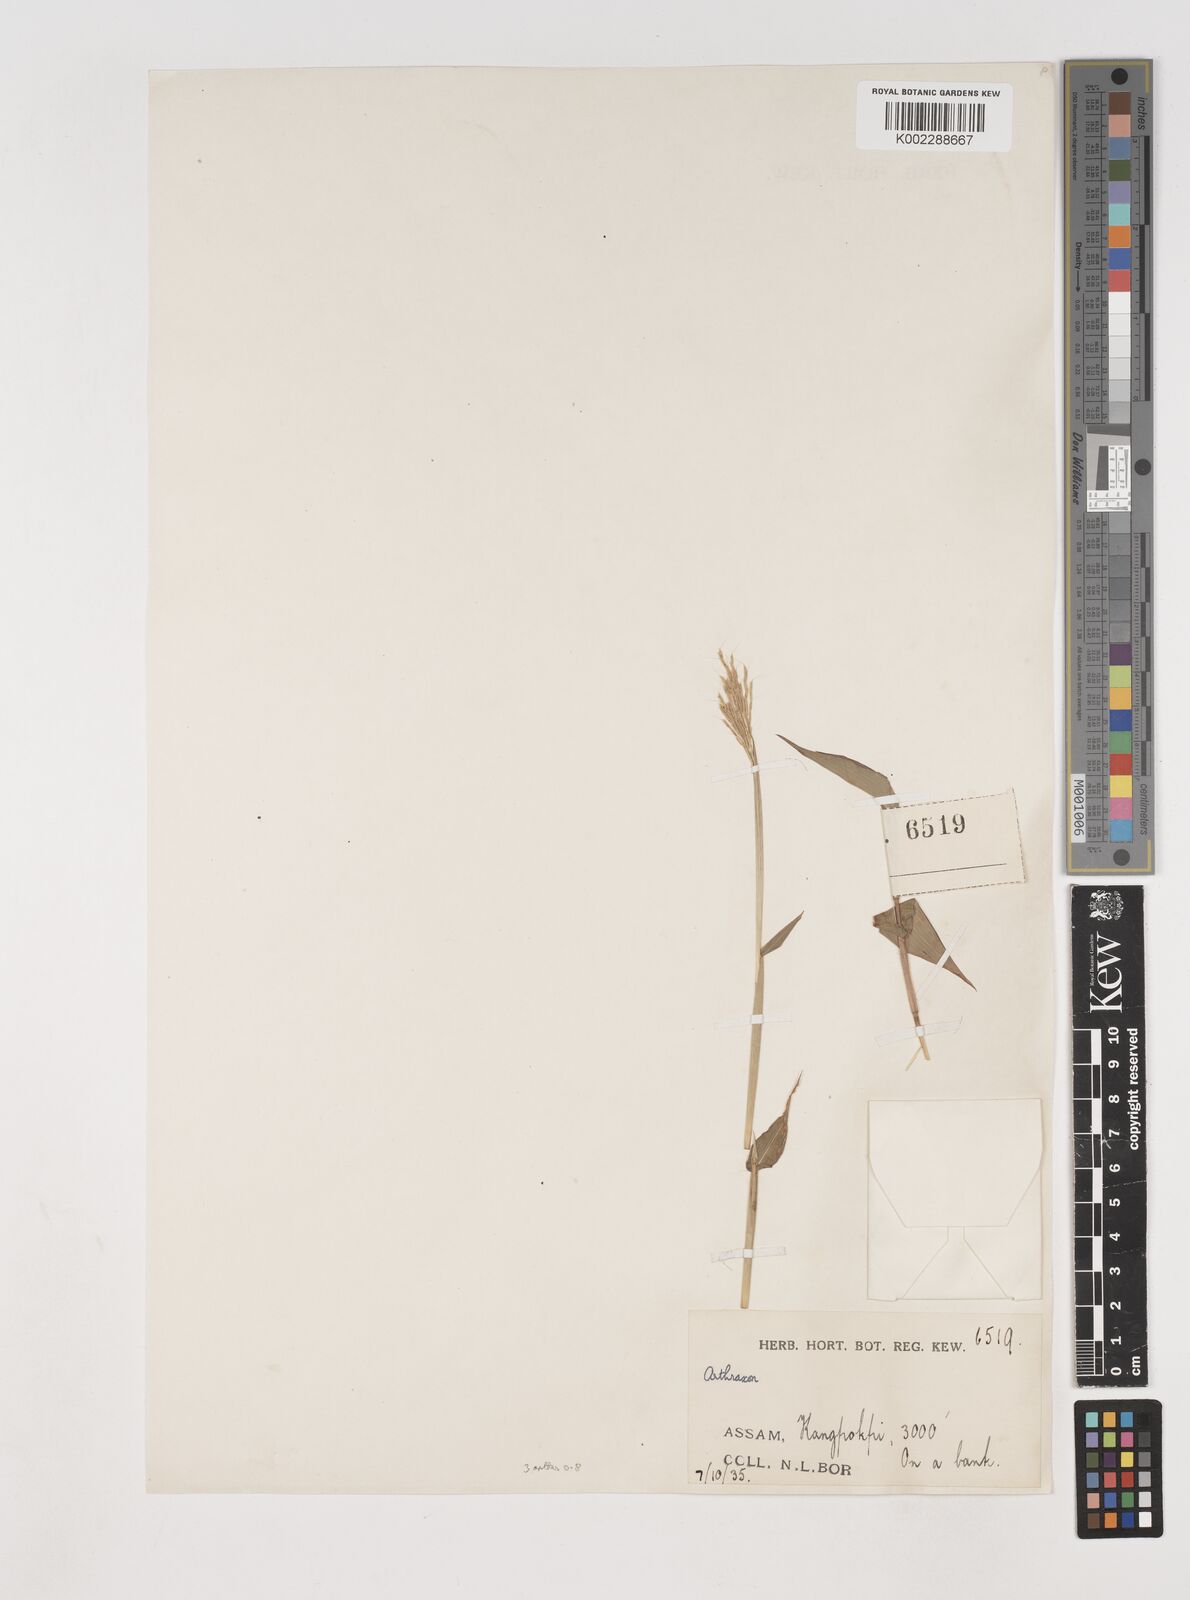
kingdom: Plantae
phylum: Tracheophyta
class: Liliopsida
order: Poales
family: Poaceae
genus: Arthraxon
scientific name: Arthraxon nudus
